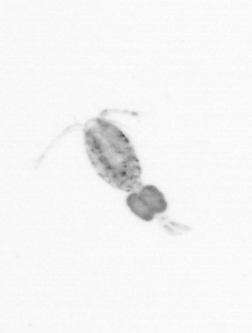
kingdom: Animalia
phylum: Arthropoda
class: Copepoda
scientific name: Copepoda
